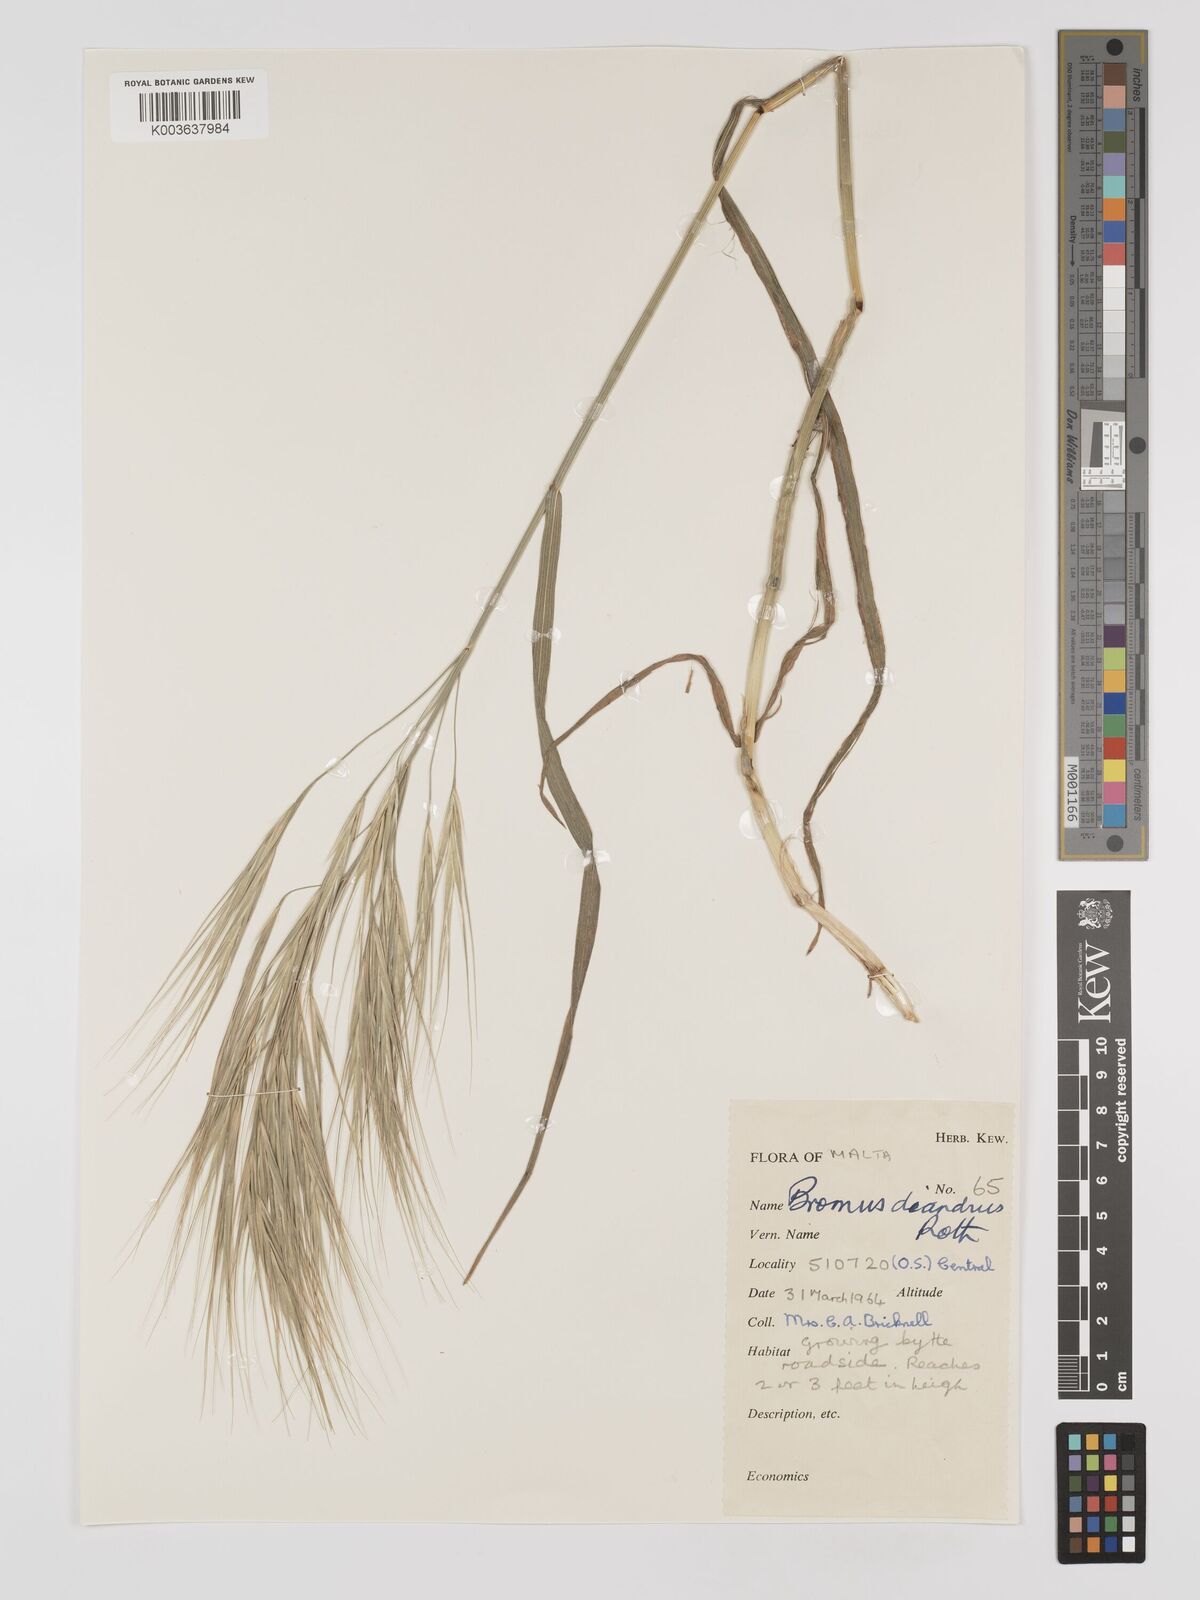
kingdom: Plantae
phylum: Tracheophyta
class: Liliopsida
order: Poales
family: Poaceae
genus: Bromus
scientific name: Bromus
